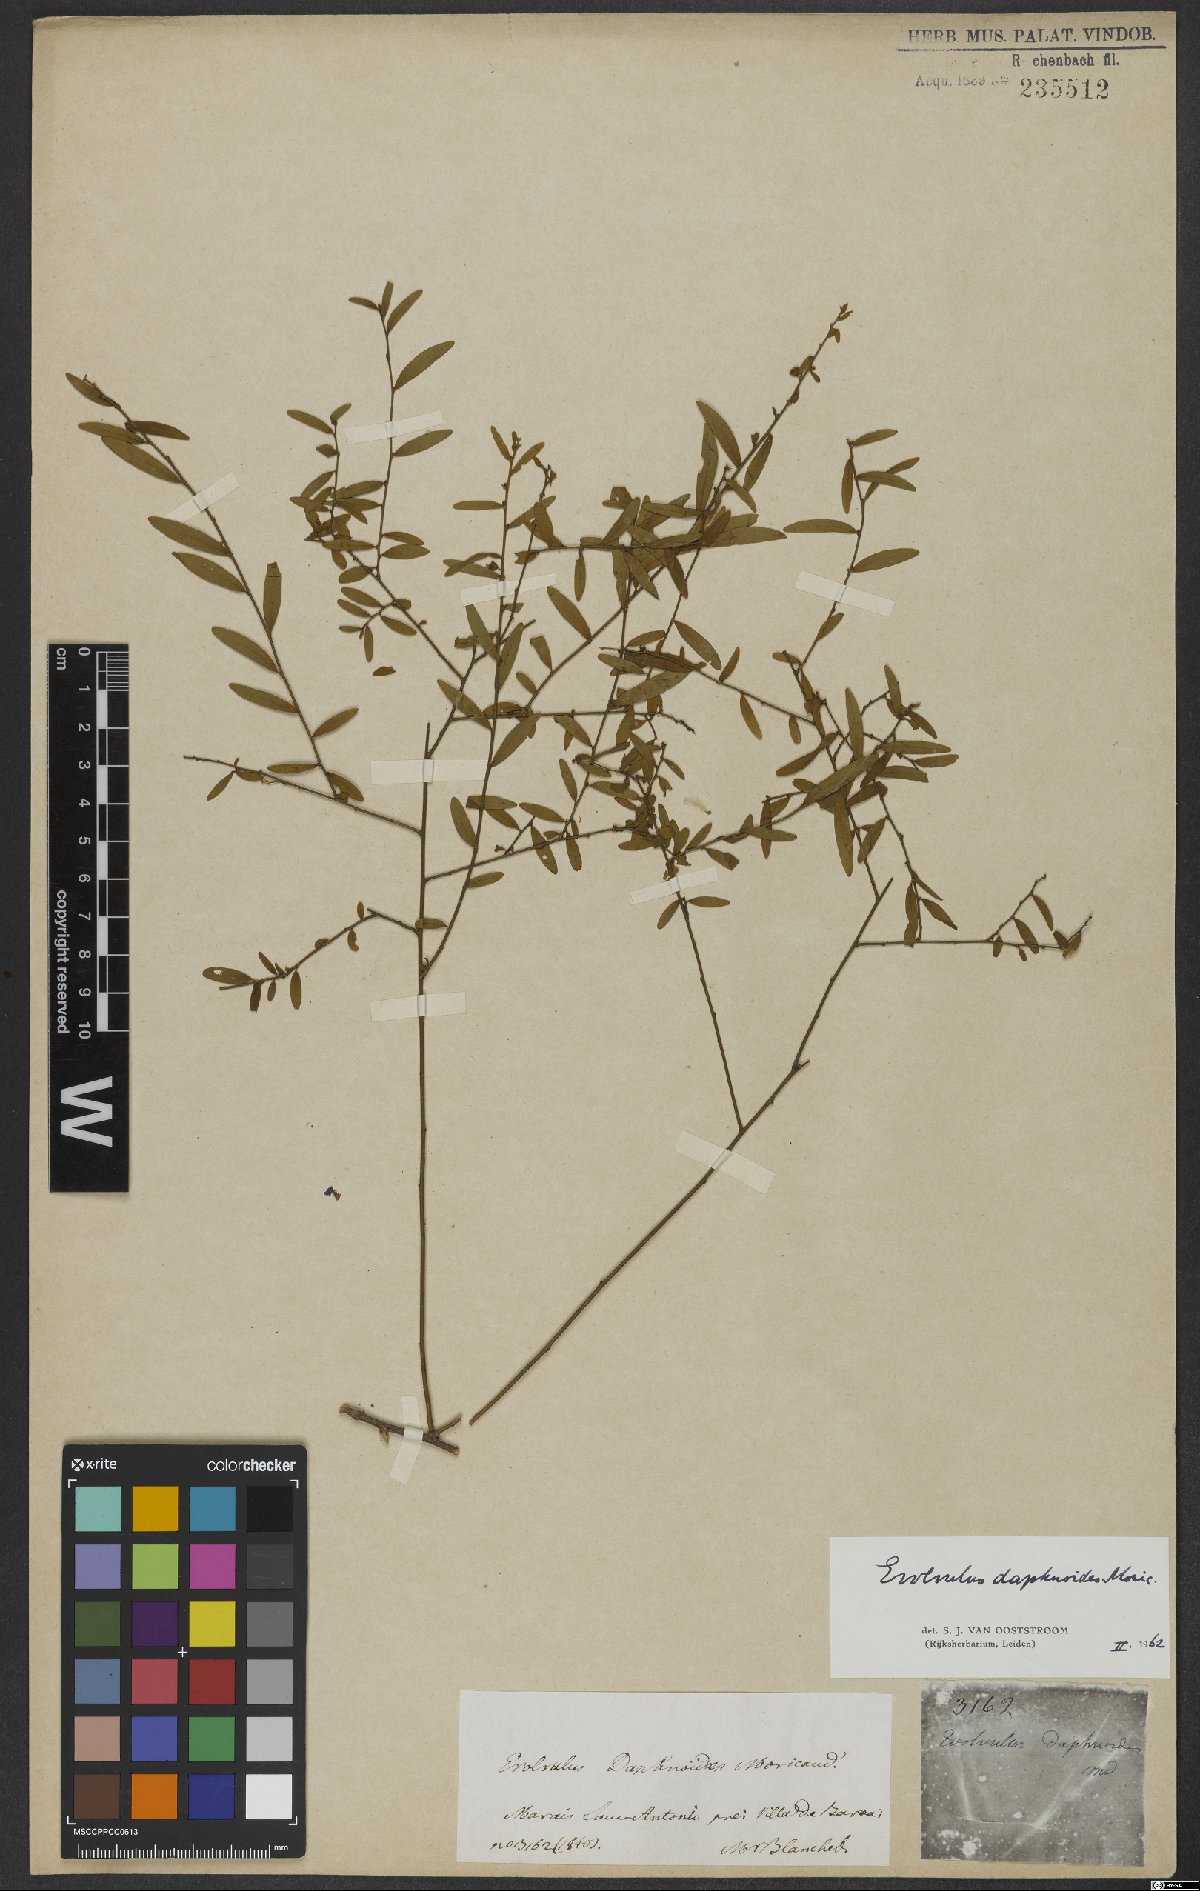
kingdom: Plantae
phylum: Tracheophyta
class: Magnoliopsida
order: Solanales
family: Convolvulaceae
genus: Evolvulus
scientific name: Evolvulus daphnoides
